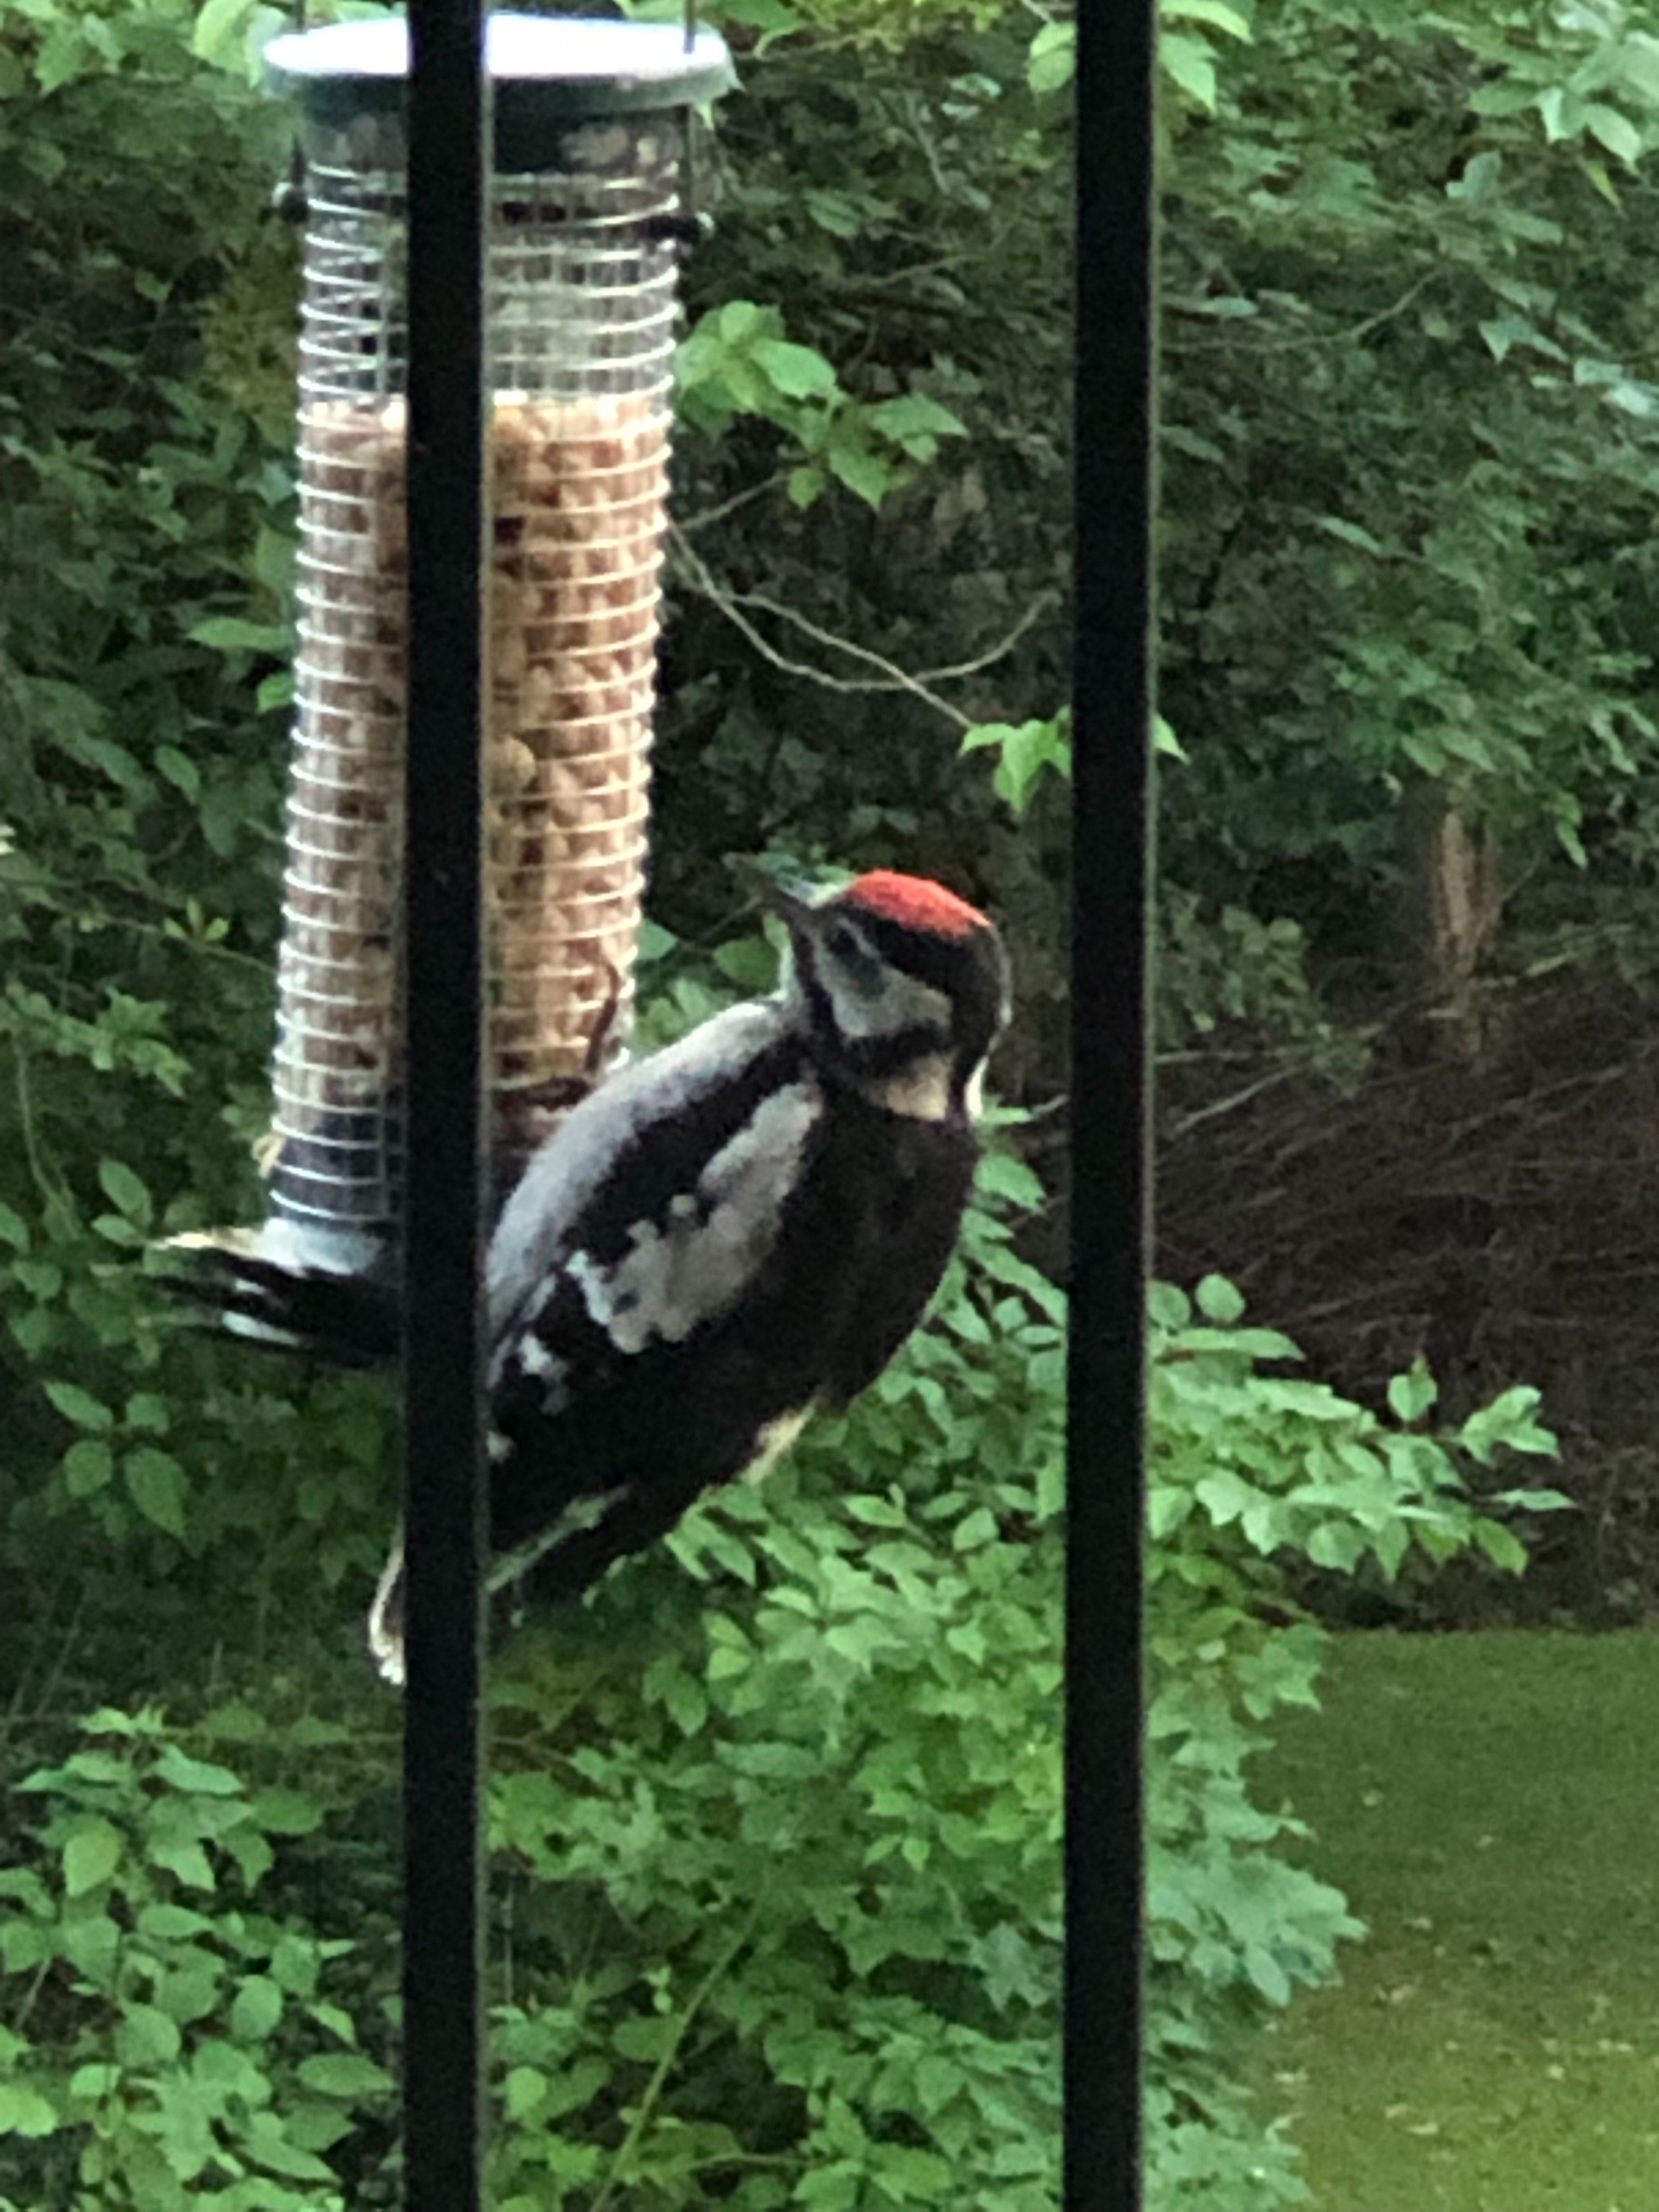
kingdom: Animalia
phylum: Chordata
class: Aves
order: Piciformes
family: Picidae
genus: Dendrocopos
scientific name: Dendrocopos major
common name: Stor flagspætte
